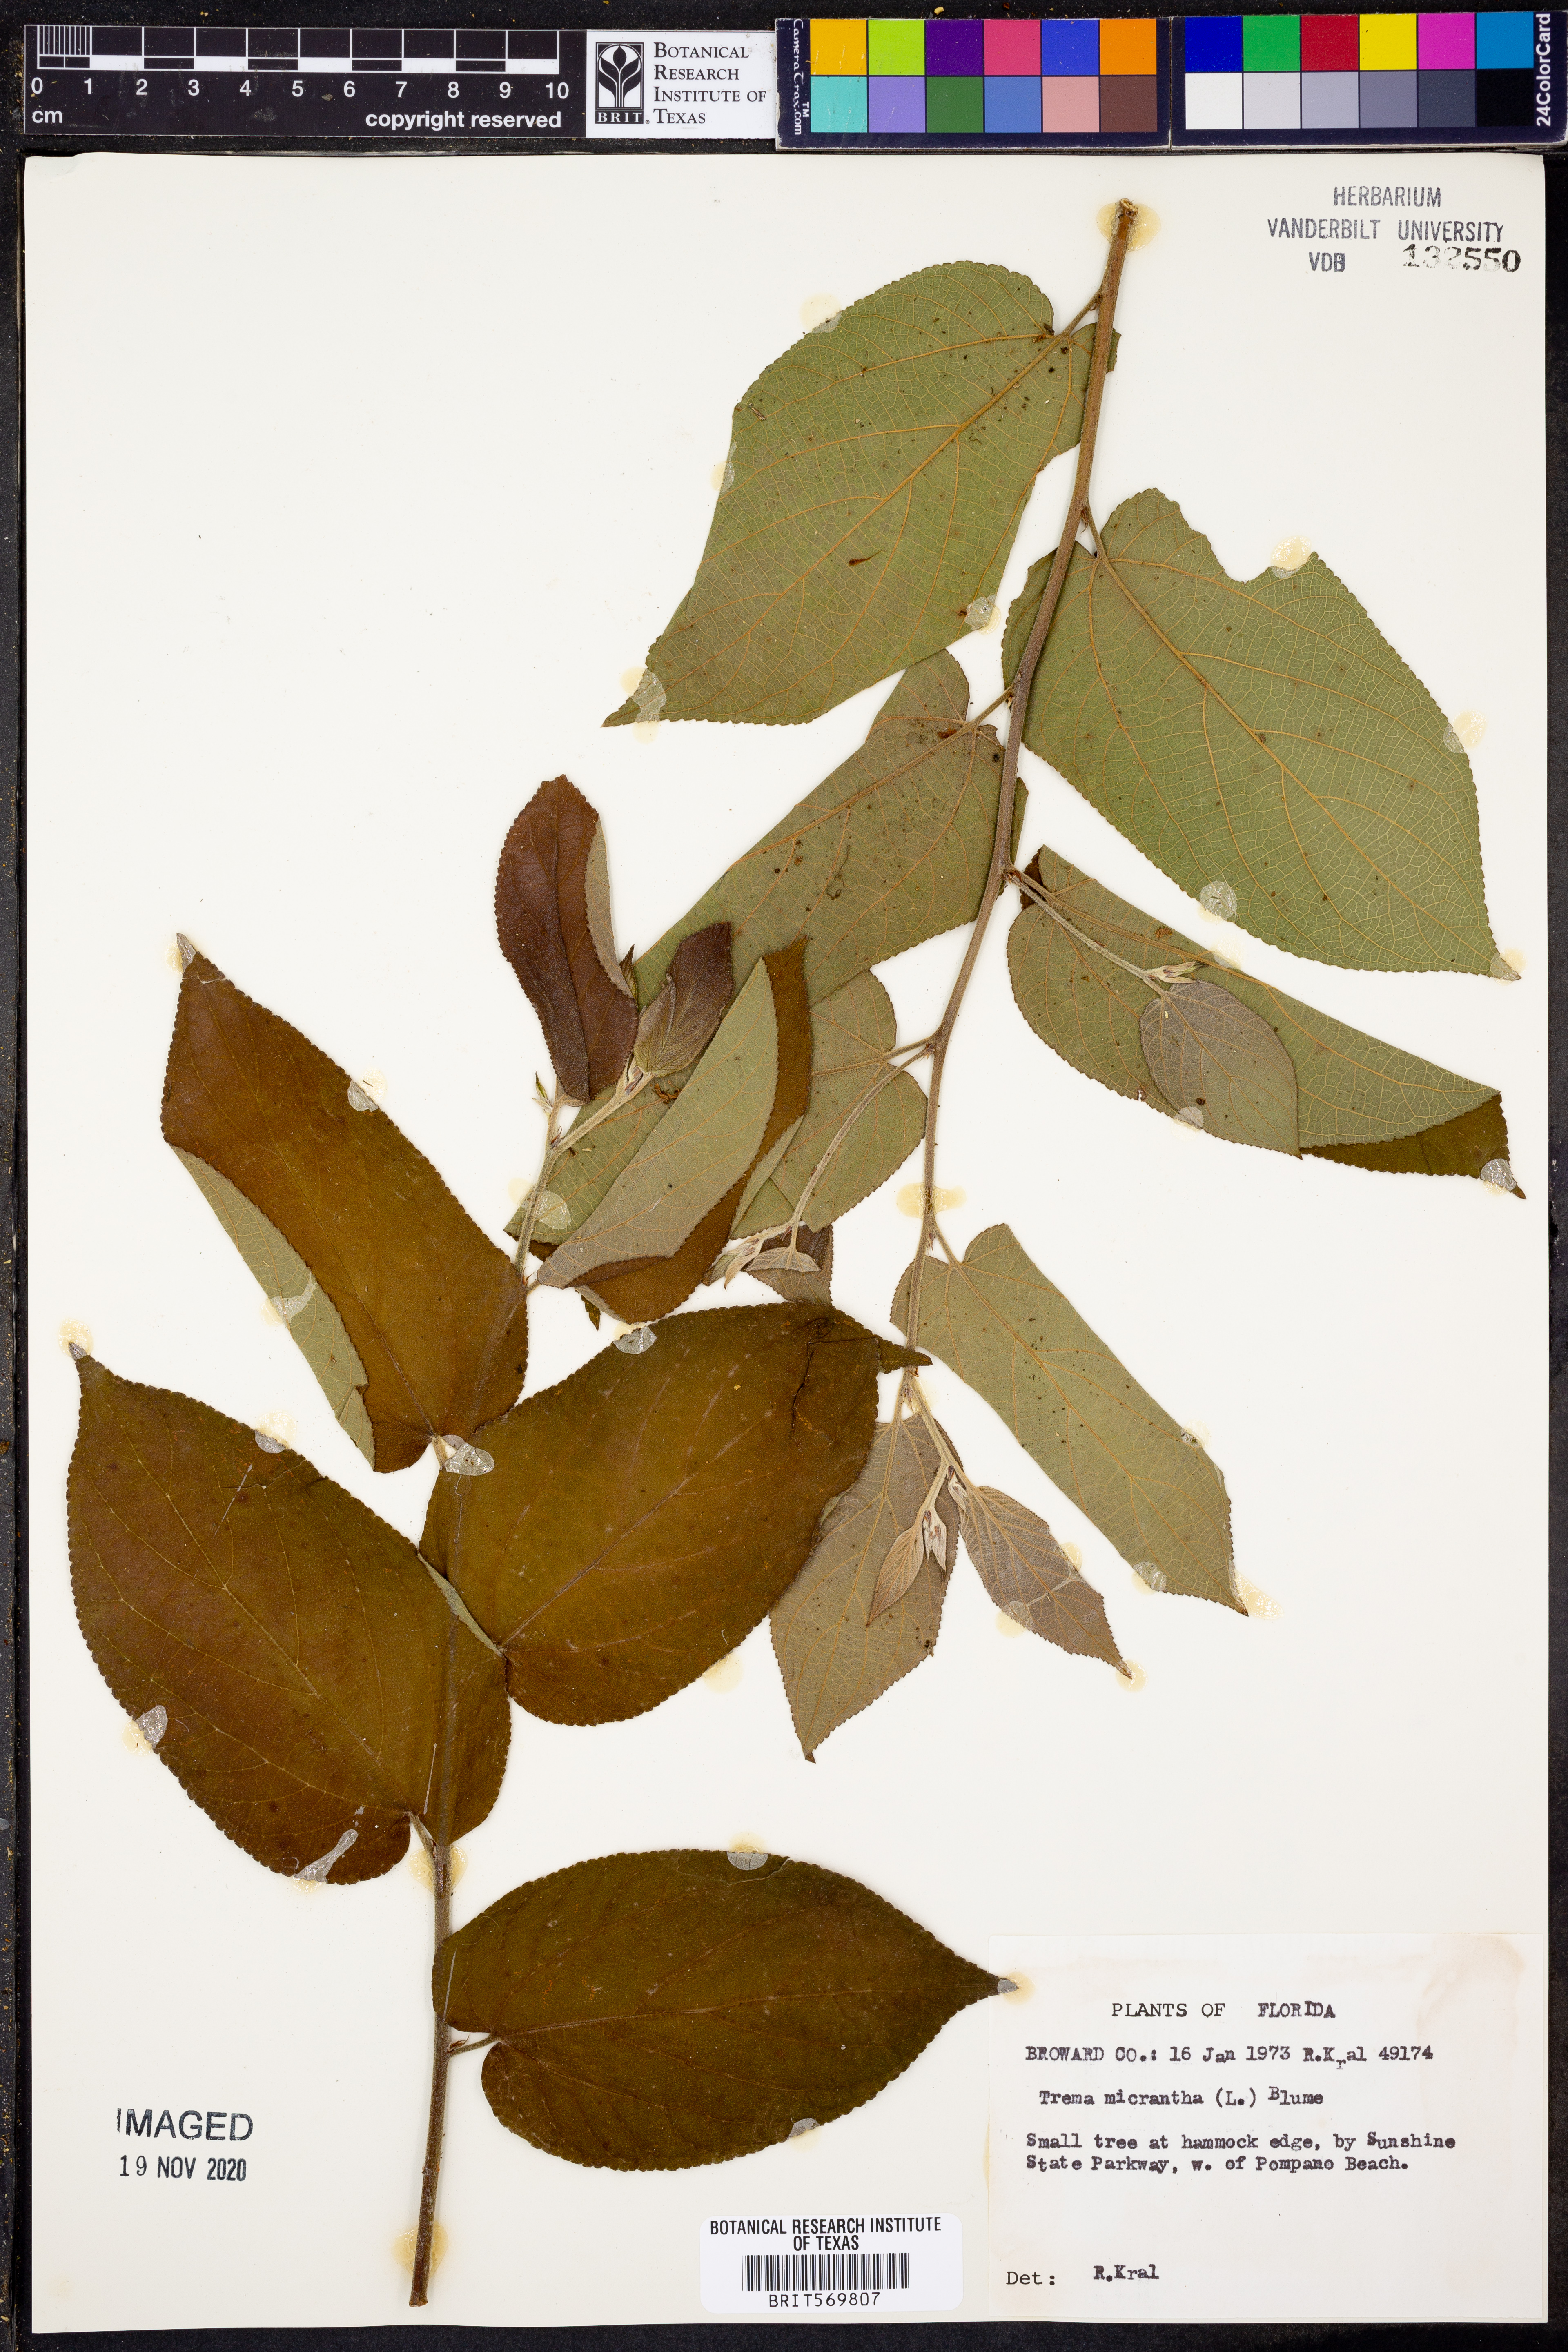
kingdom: Plantae
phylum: Tracheophyta
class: Magnoliopsida
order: Rosales
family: Cannabaceae
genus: Trema
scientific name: Trema micranthum
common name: Jamaican nettletree
